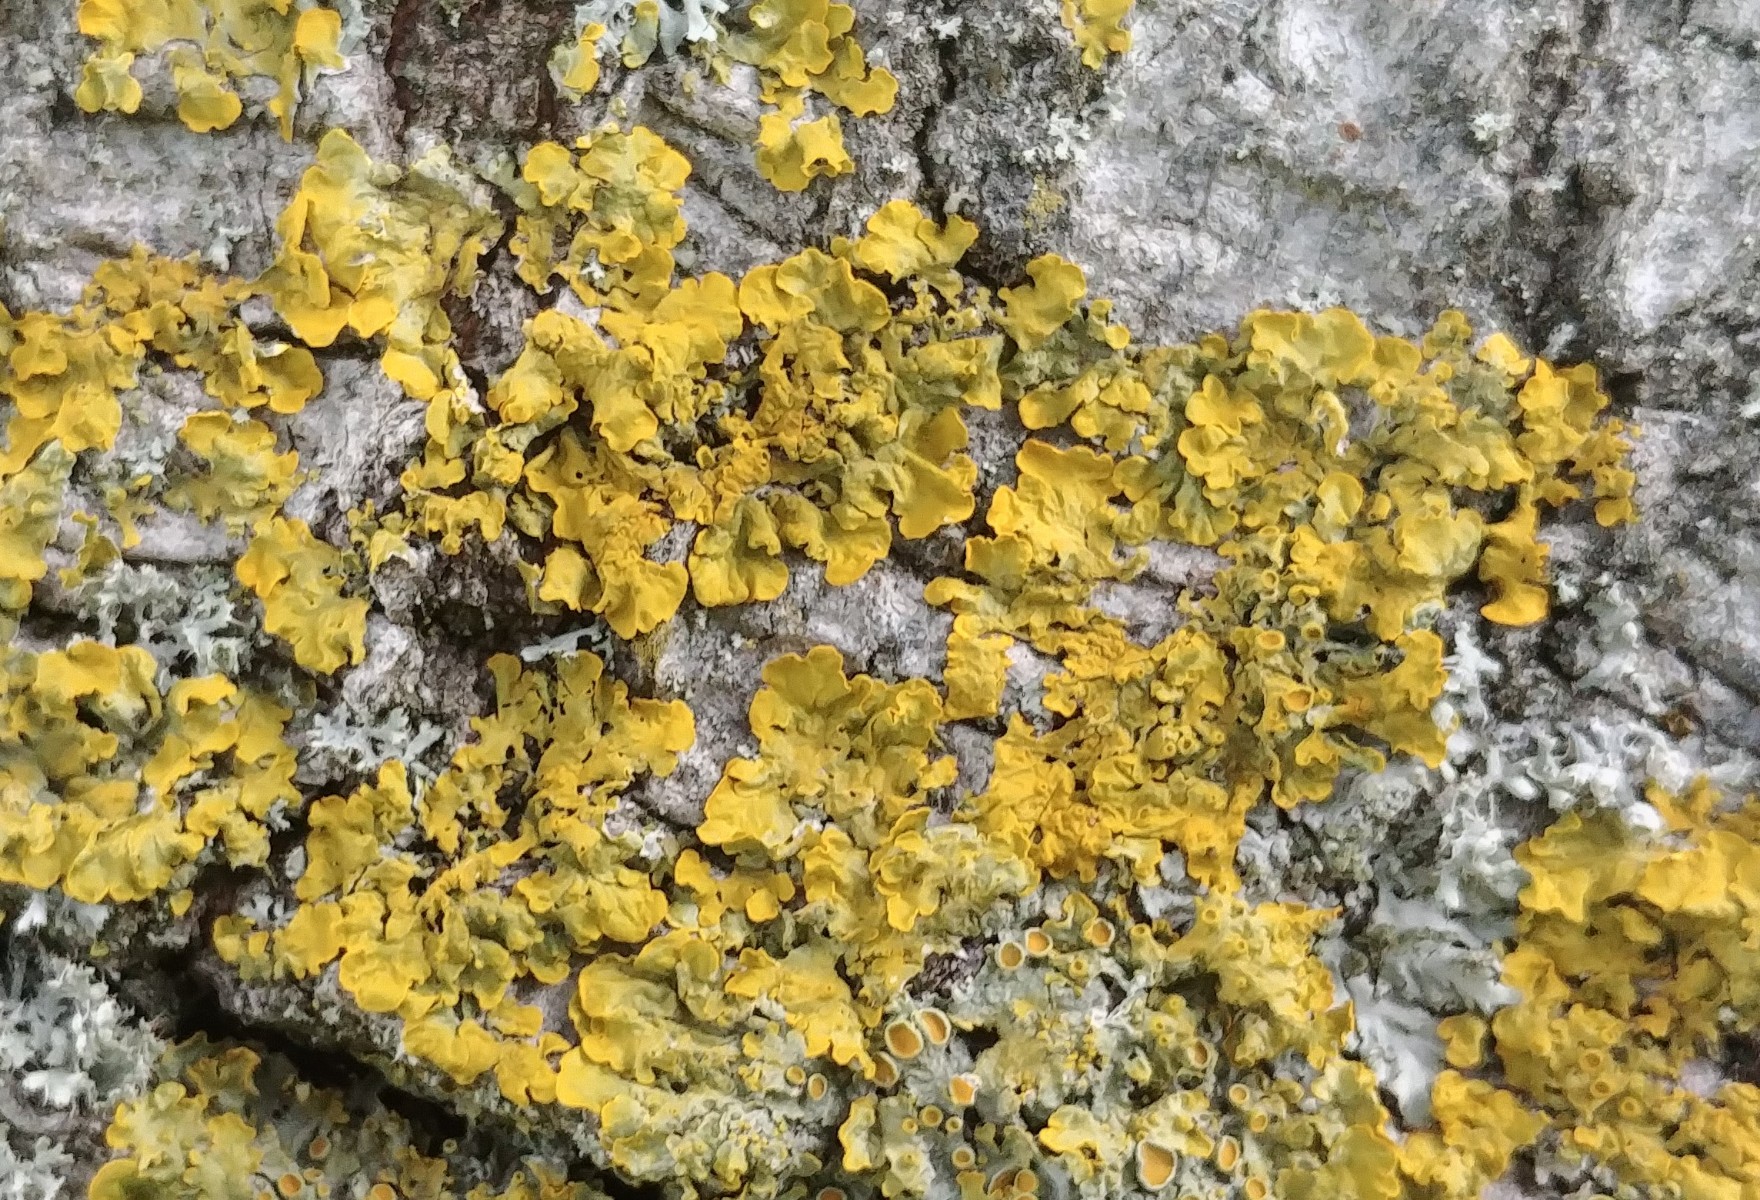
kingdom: Fungi
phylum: Ascomycota
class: Lecanoromycetes
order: Teloschistales
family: Teloschistaceae
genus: Xanthoria
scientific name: Xanthoria parietina
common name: almindelig væggelav
